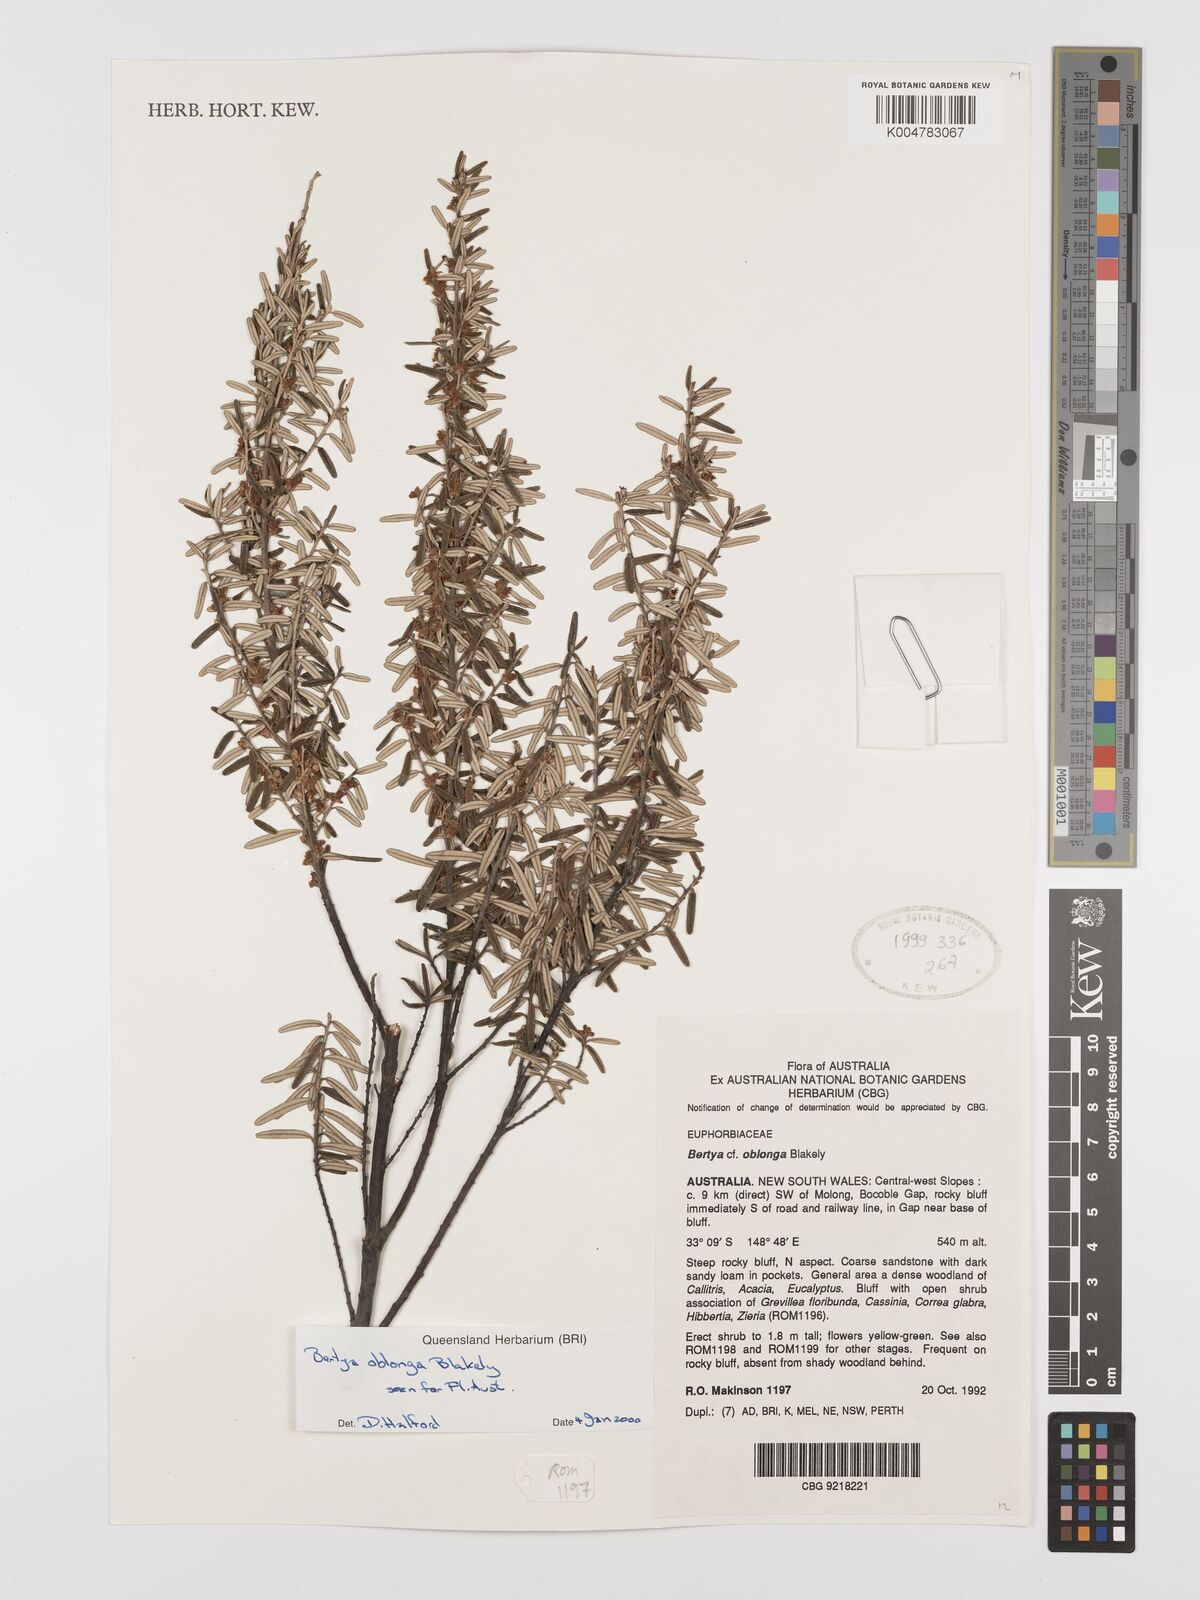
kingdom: Plantae
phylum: Tracheophyta
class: Magnoliopsida
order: Malpighiales
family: Euphorbiaceae
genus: Bertya
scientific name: Bertya oblonga
